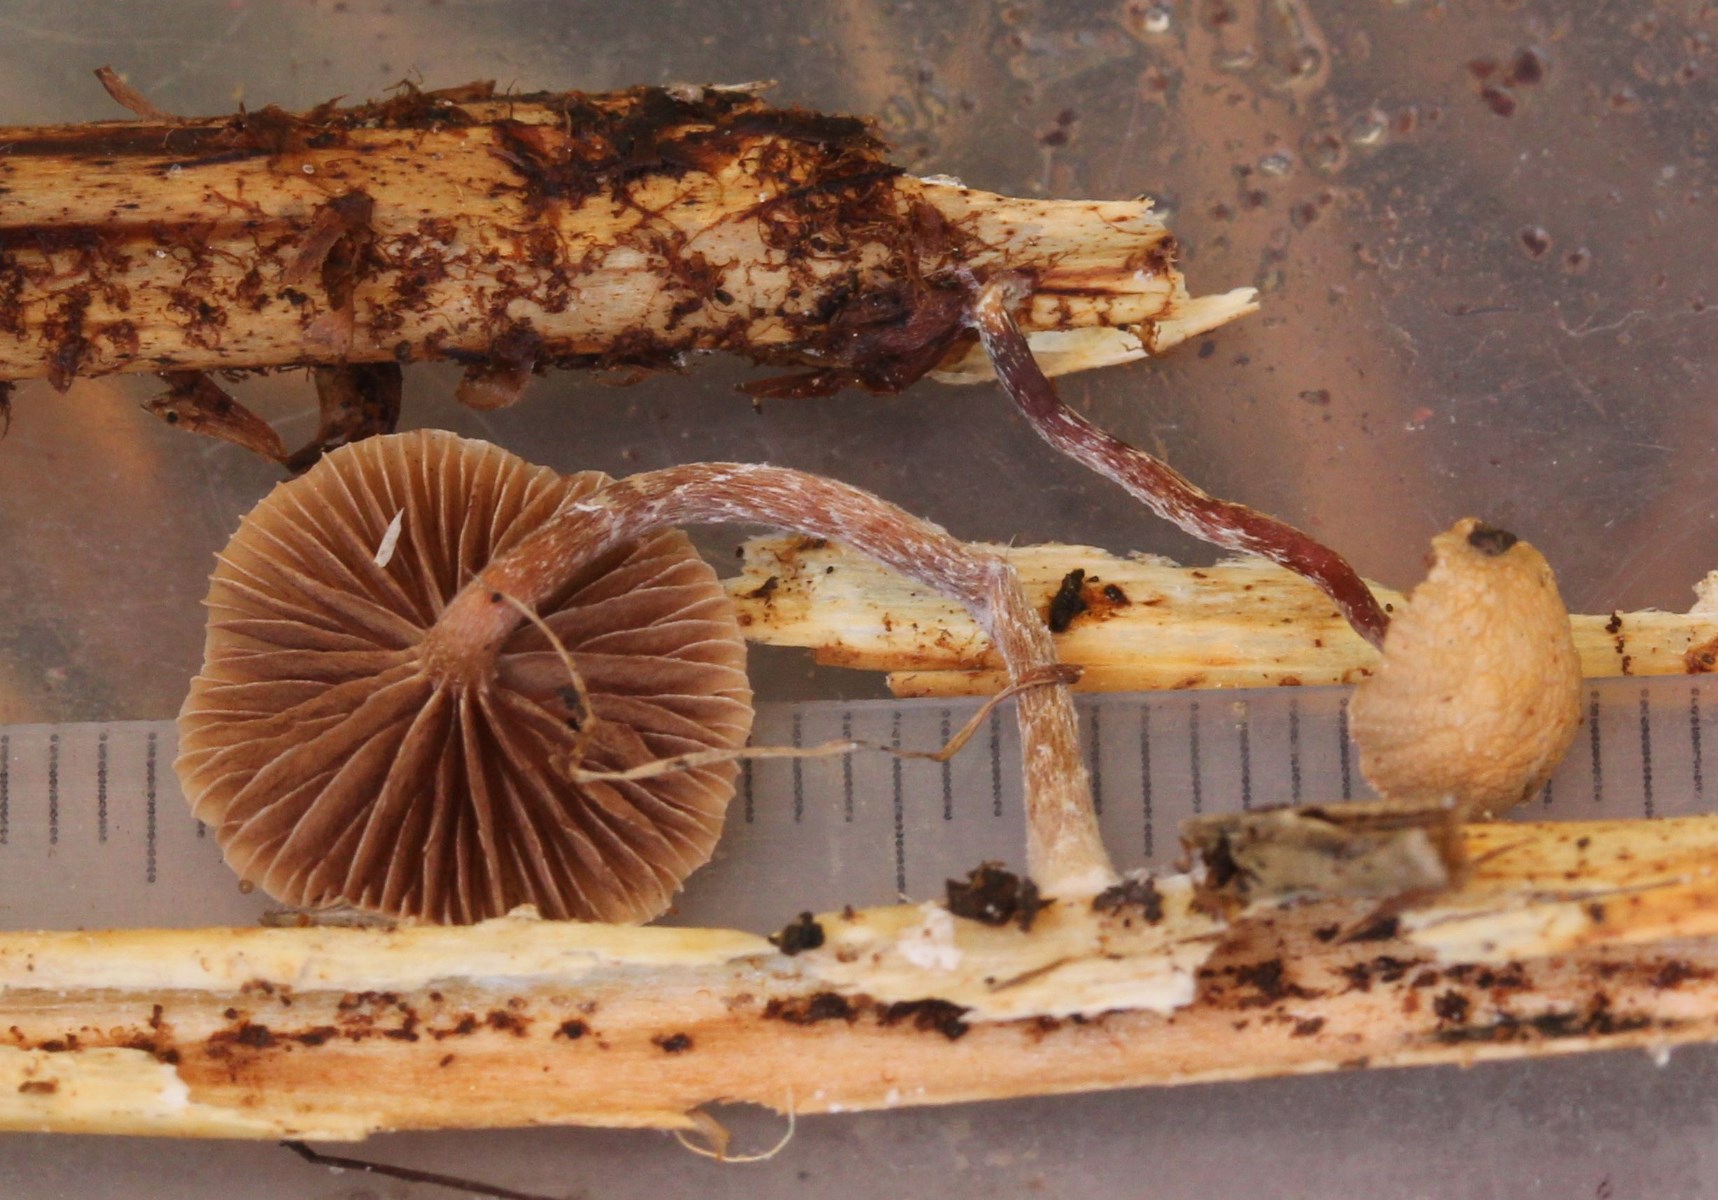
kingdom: Fungi
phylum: Basidiomycota
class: Agaricomycetes
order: Agaricales
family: Strophariaceae
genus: Deconica
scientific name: Deconica
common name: stråhat
